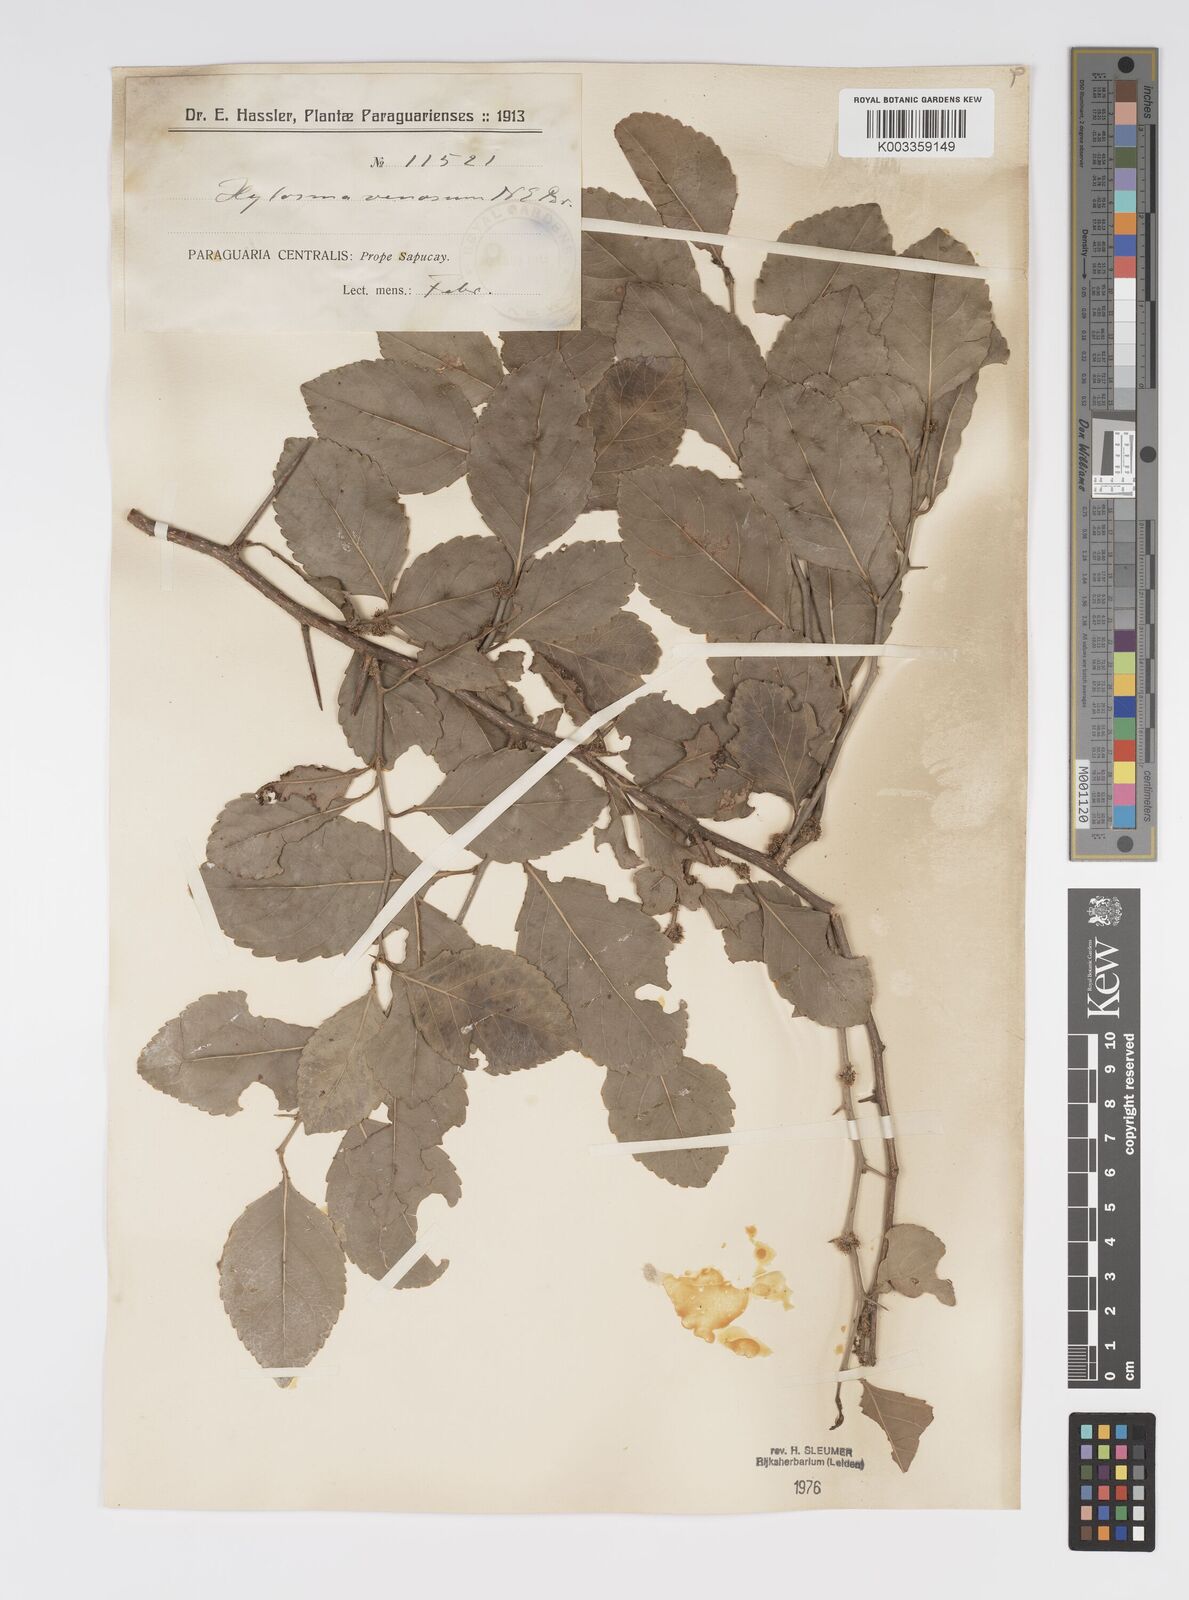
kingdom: Plantae
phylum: Tracheophyta
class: Magnoliopsida
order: Malpighiales
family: Salicaceae
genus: Xylosma
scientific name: Xylosma venosa
